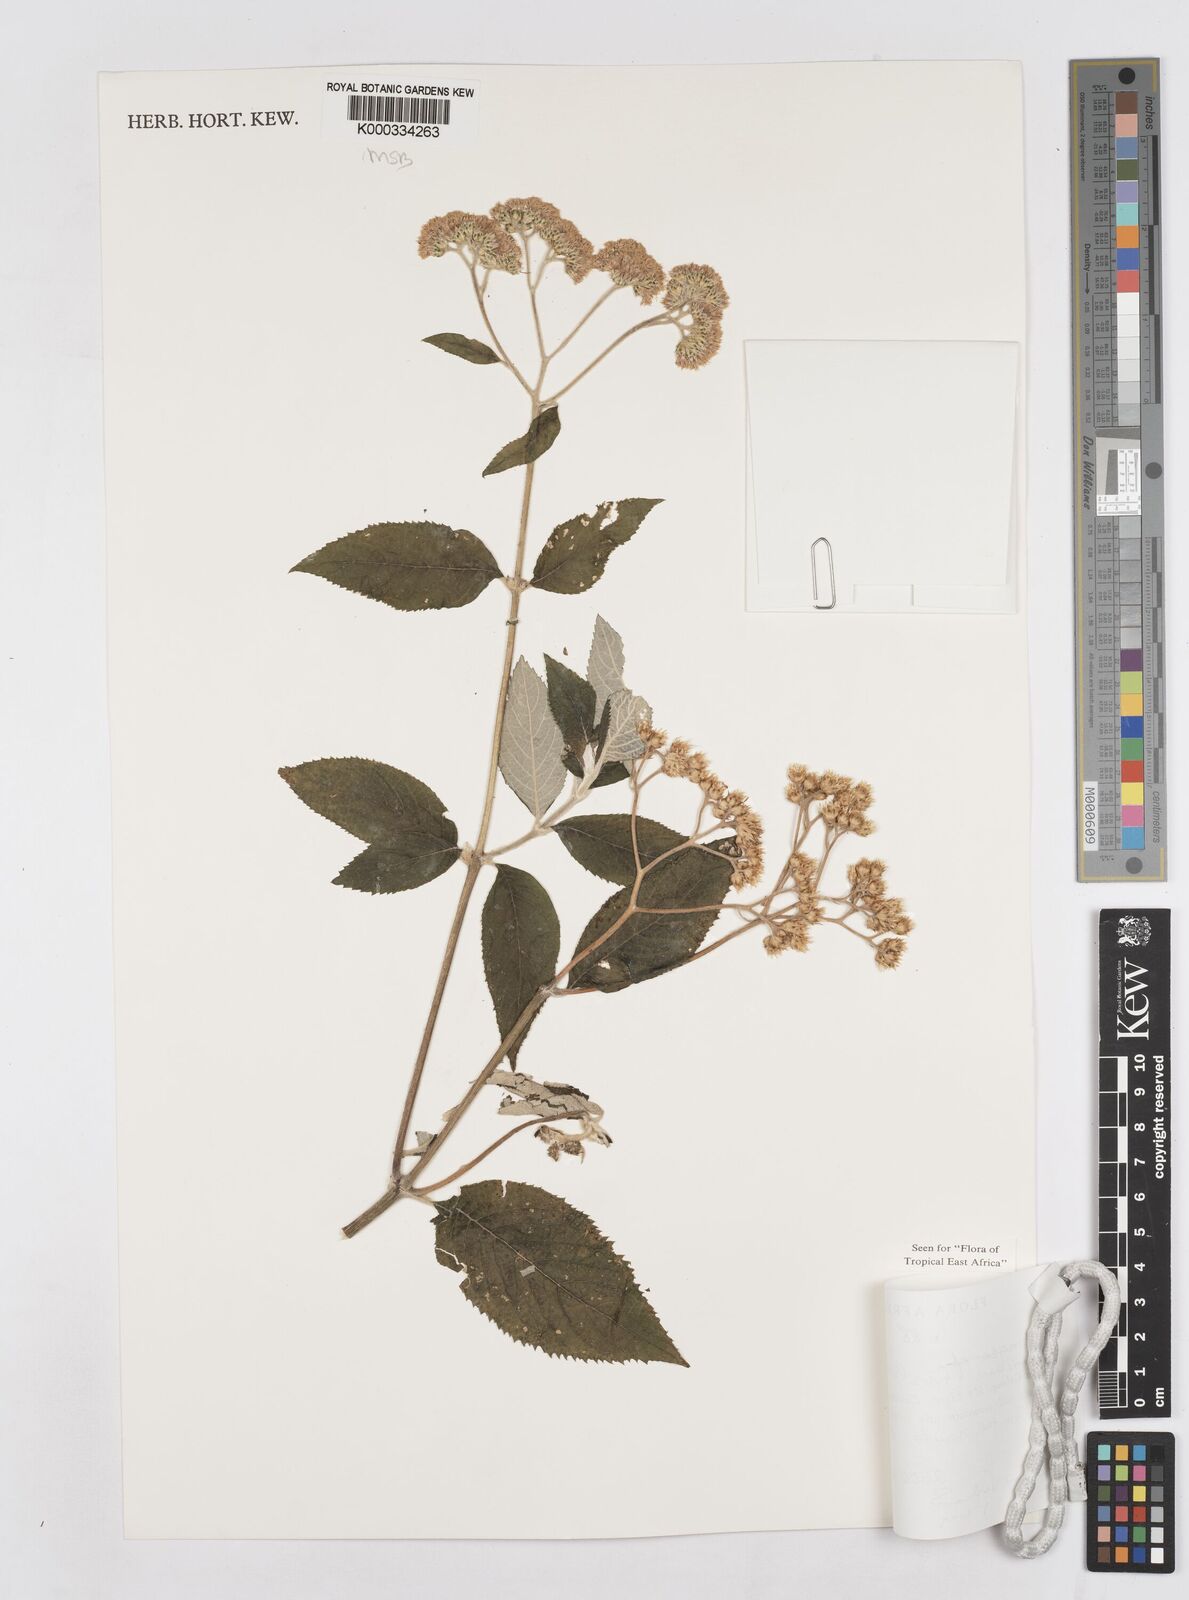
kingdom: Plantae
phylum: Tracheophyta
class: Magnoliopsida
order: Asterales
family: Asteraceae
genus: Bothriocline
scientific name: Bothriocline fusca
